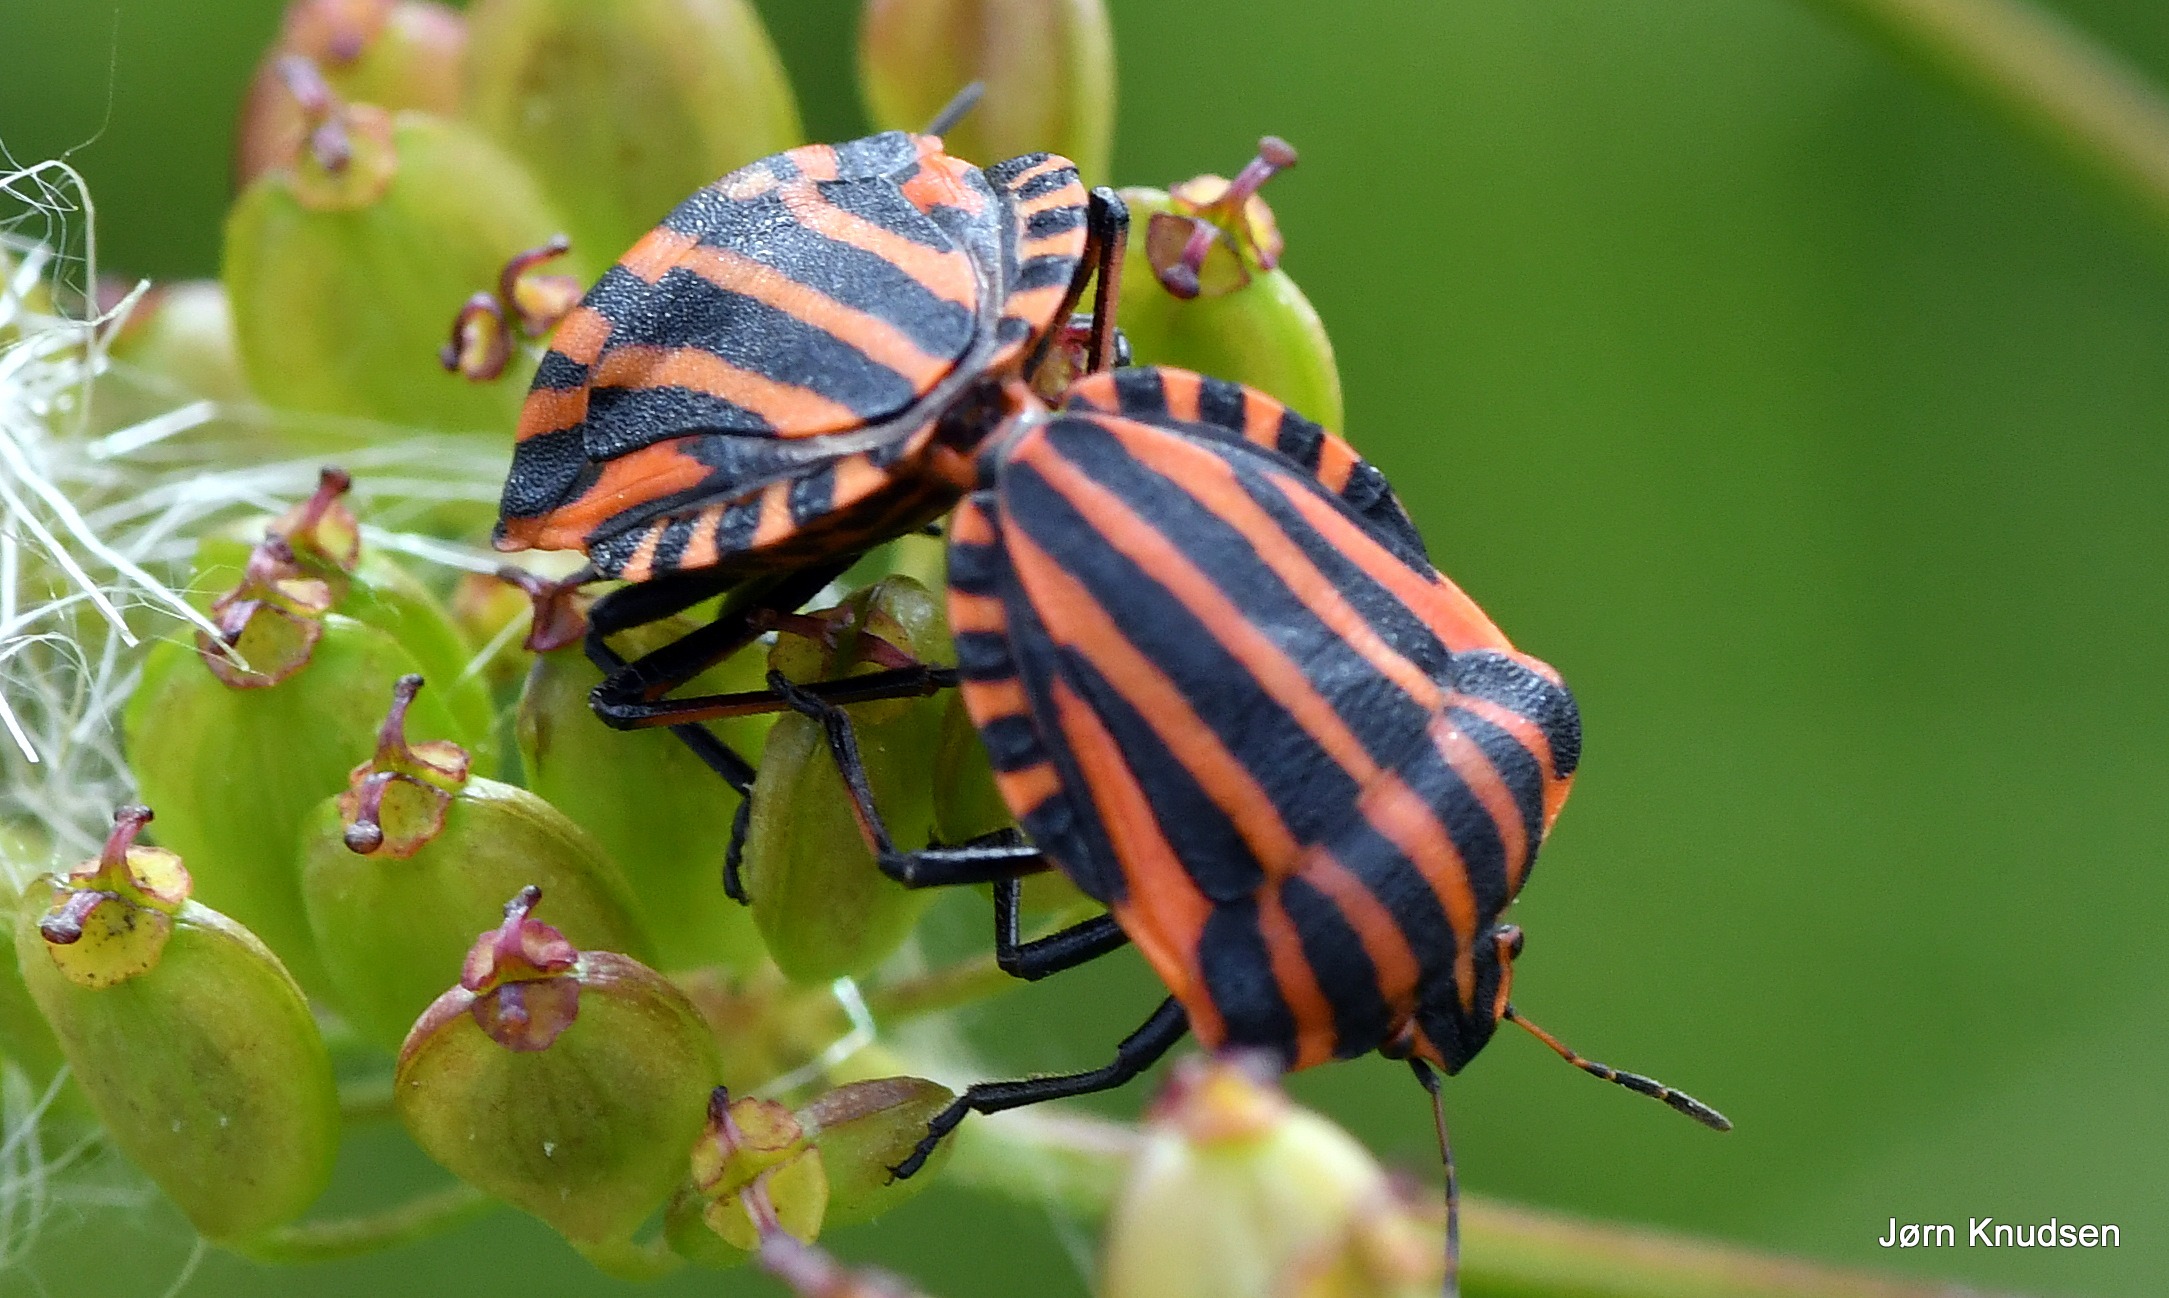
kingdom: Animalia
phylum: Arthropoda
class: Insecta
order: Hemiptera
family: Pentatomidae
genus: Graphosoma
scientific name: Graphosoma italicum
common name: Stribetæge
